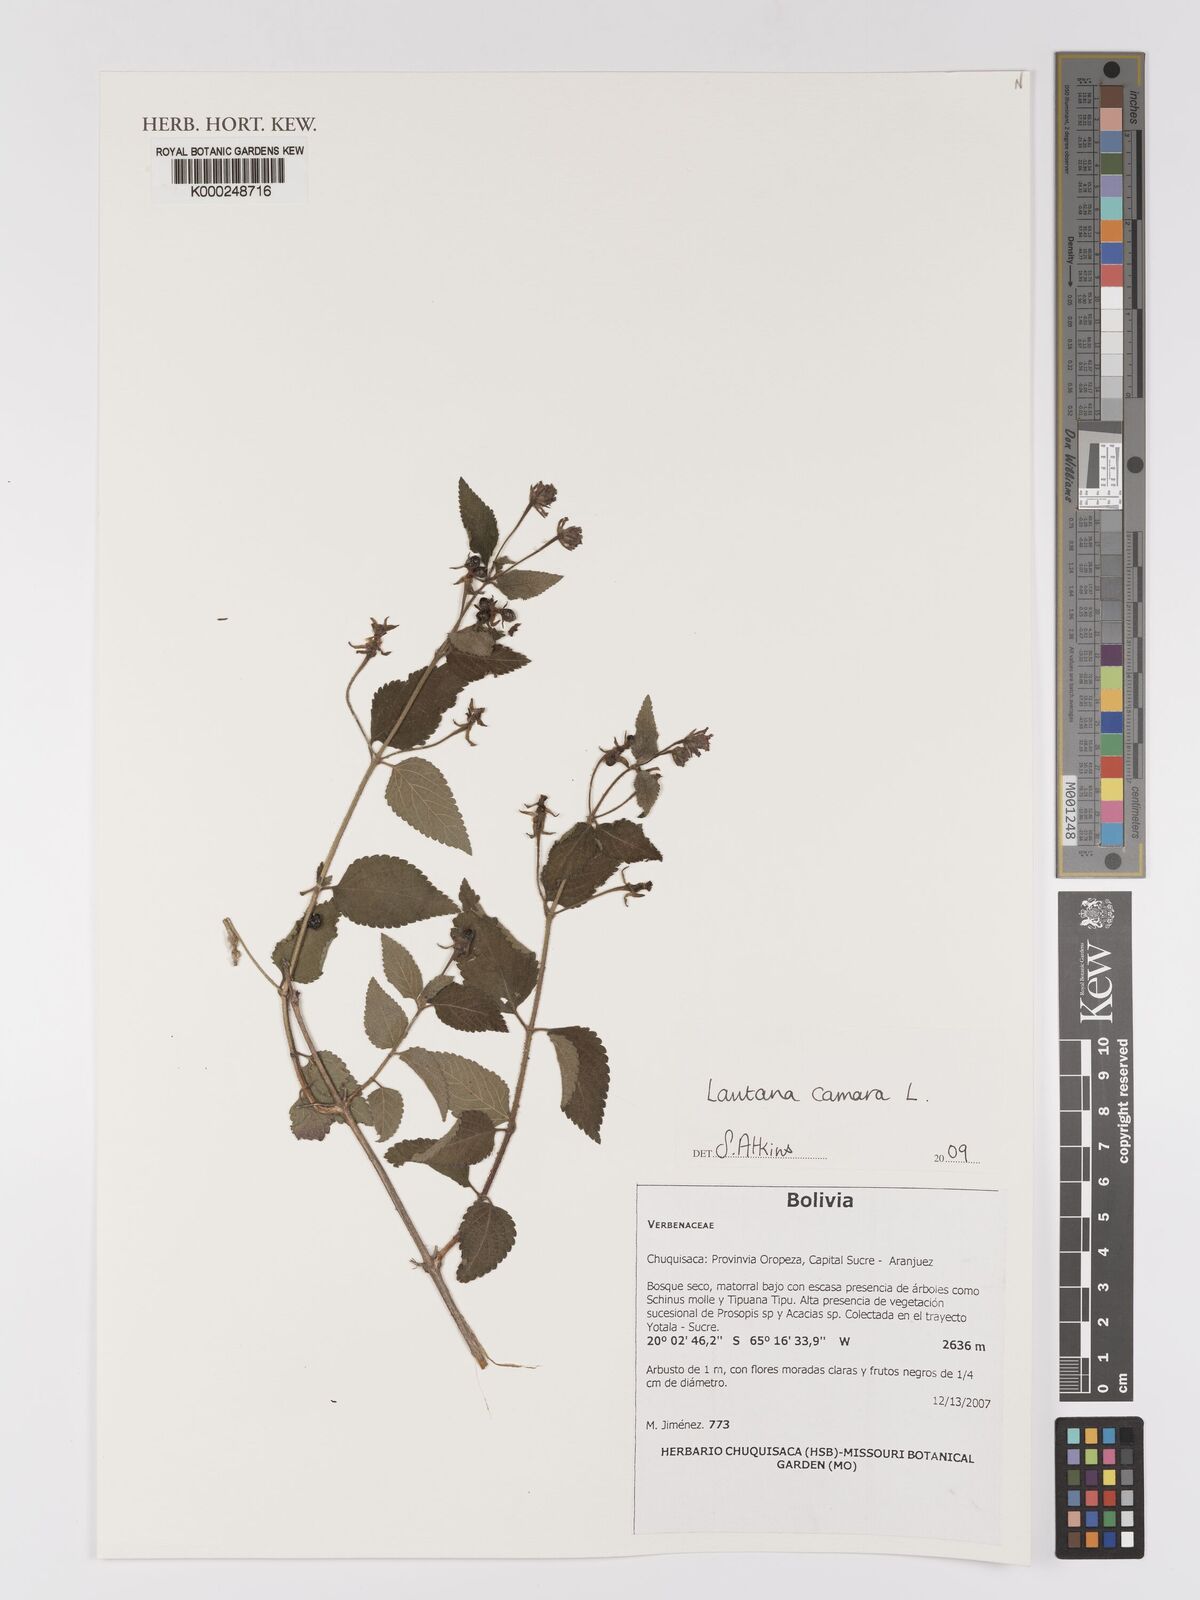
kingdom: Plantae
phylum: Tracheophyta
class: Magnoliopsida
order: Lamiales
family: Verbenaceae
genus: Lantana
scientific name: Lantana camara
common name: Lantana
